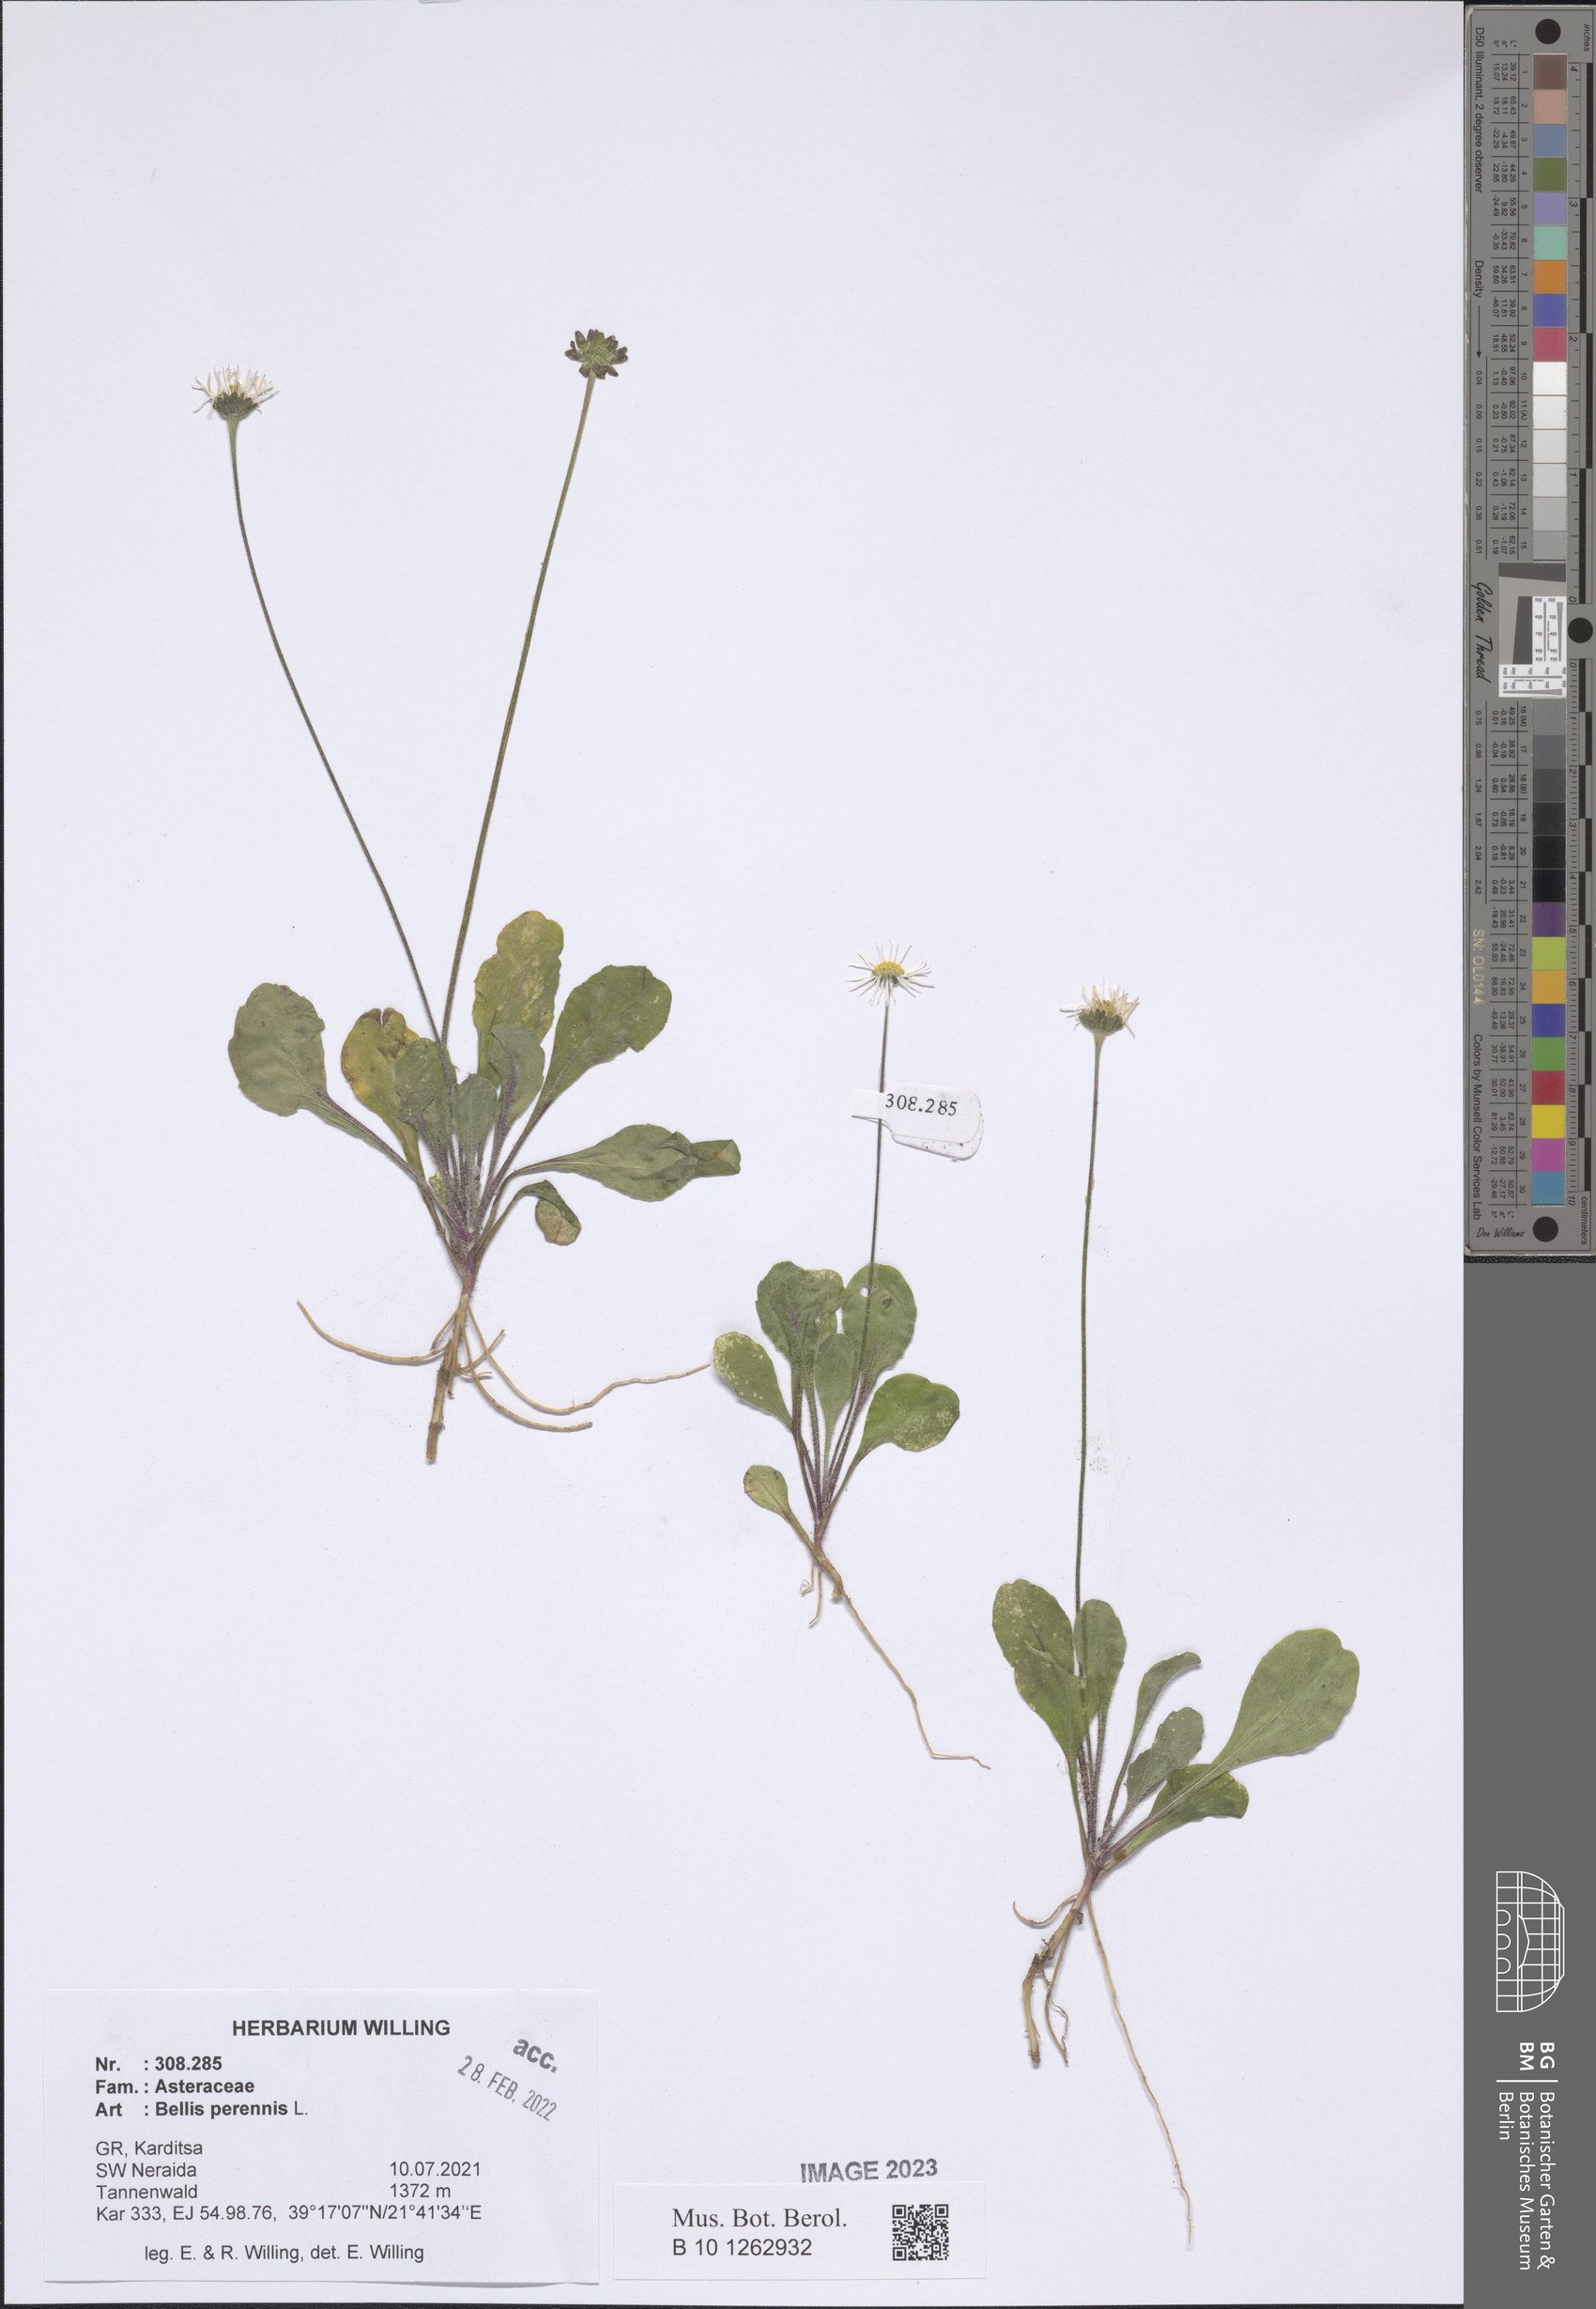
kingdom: Plantae
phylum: Tracheophyta
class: Magnoliopsida
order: Asterales
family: Asteraceae
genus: Bellis
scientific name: Bellis perennis
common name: Lawndaisy
